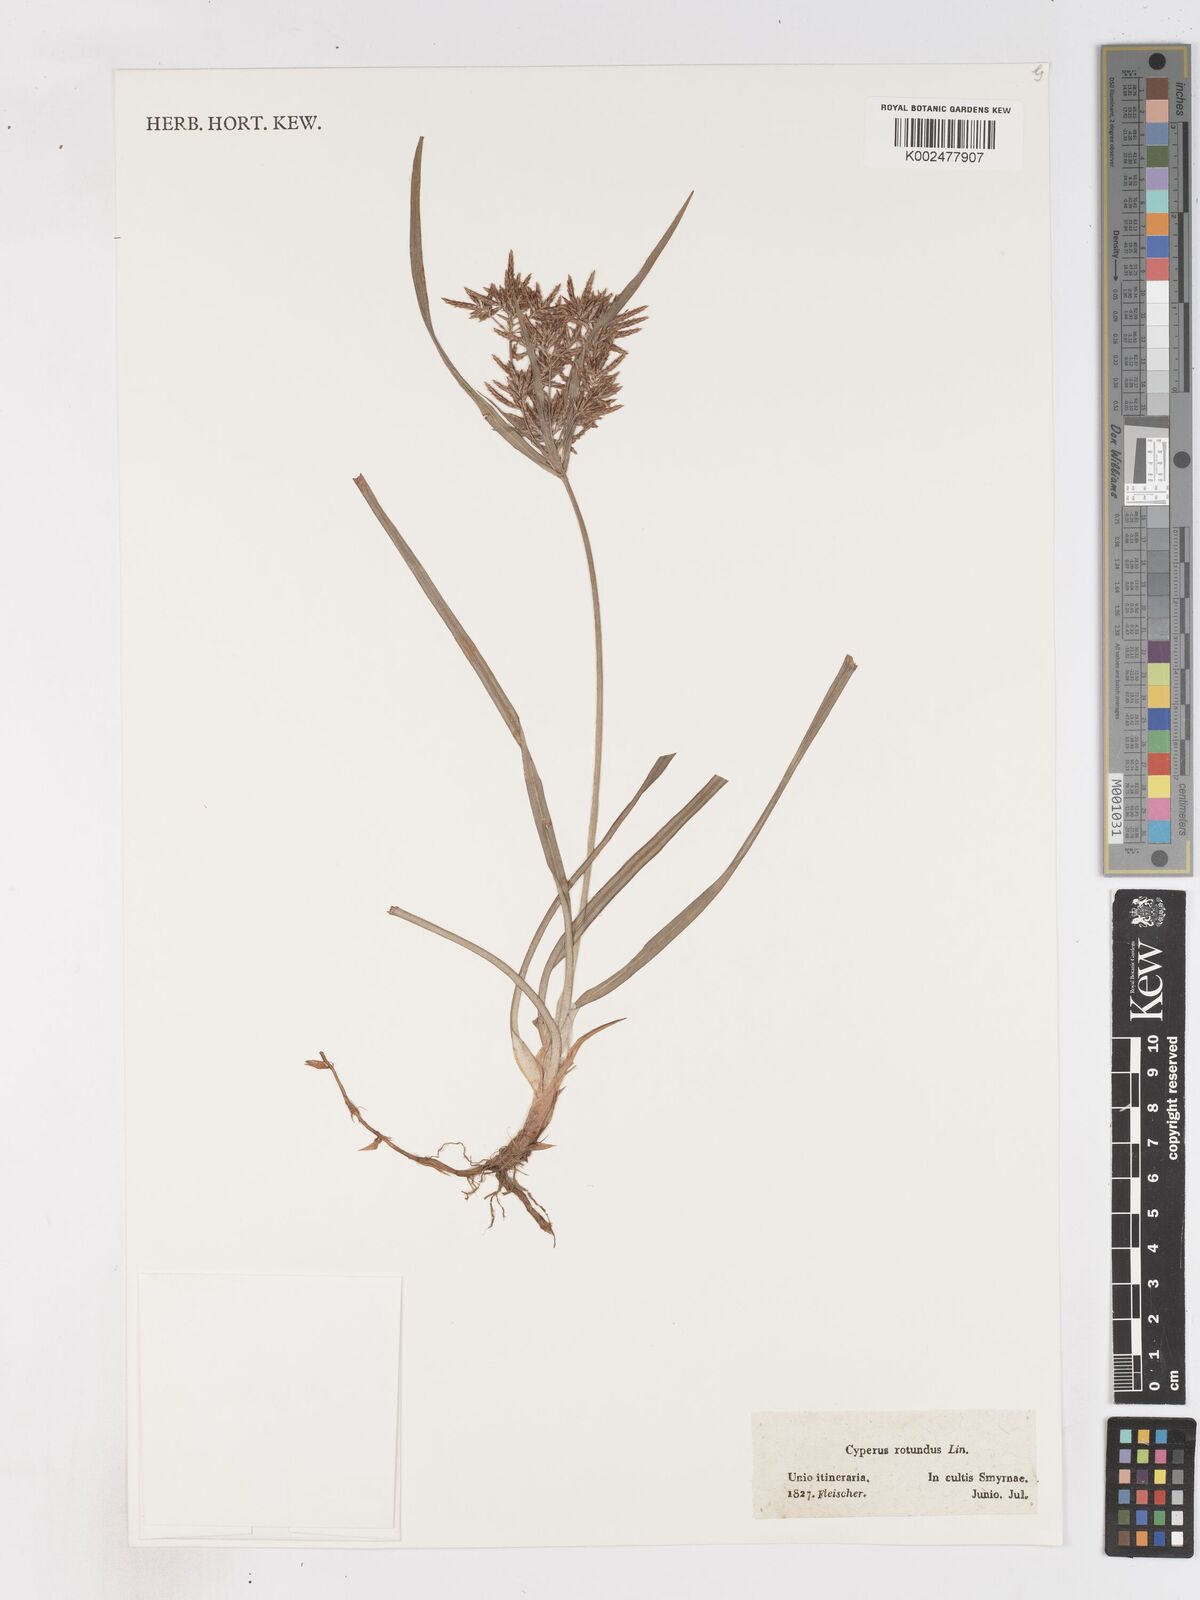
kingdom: Plantae
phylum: Tracheophyta
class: Liliopsida
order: Poales
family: Cyperaceae
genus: Cyperus
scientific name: Cyperus rotundus
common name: Nutgrass
